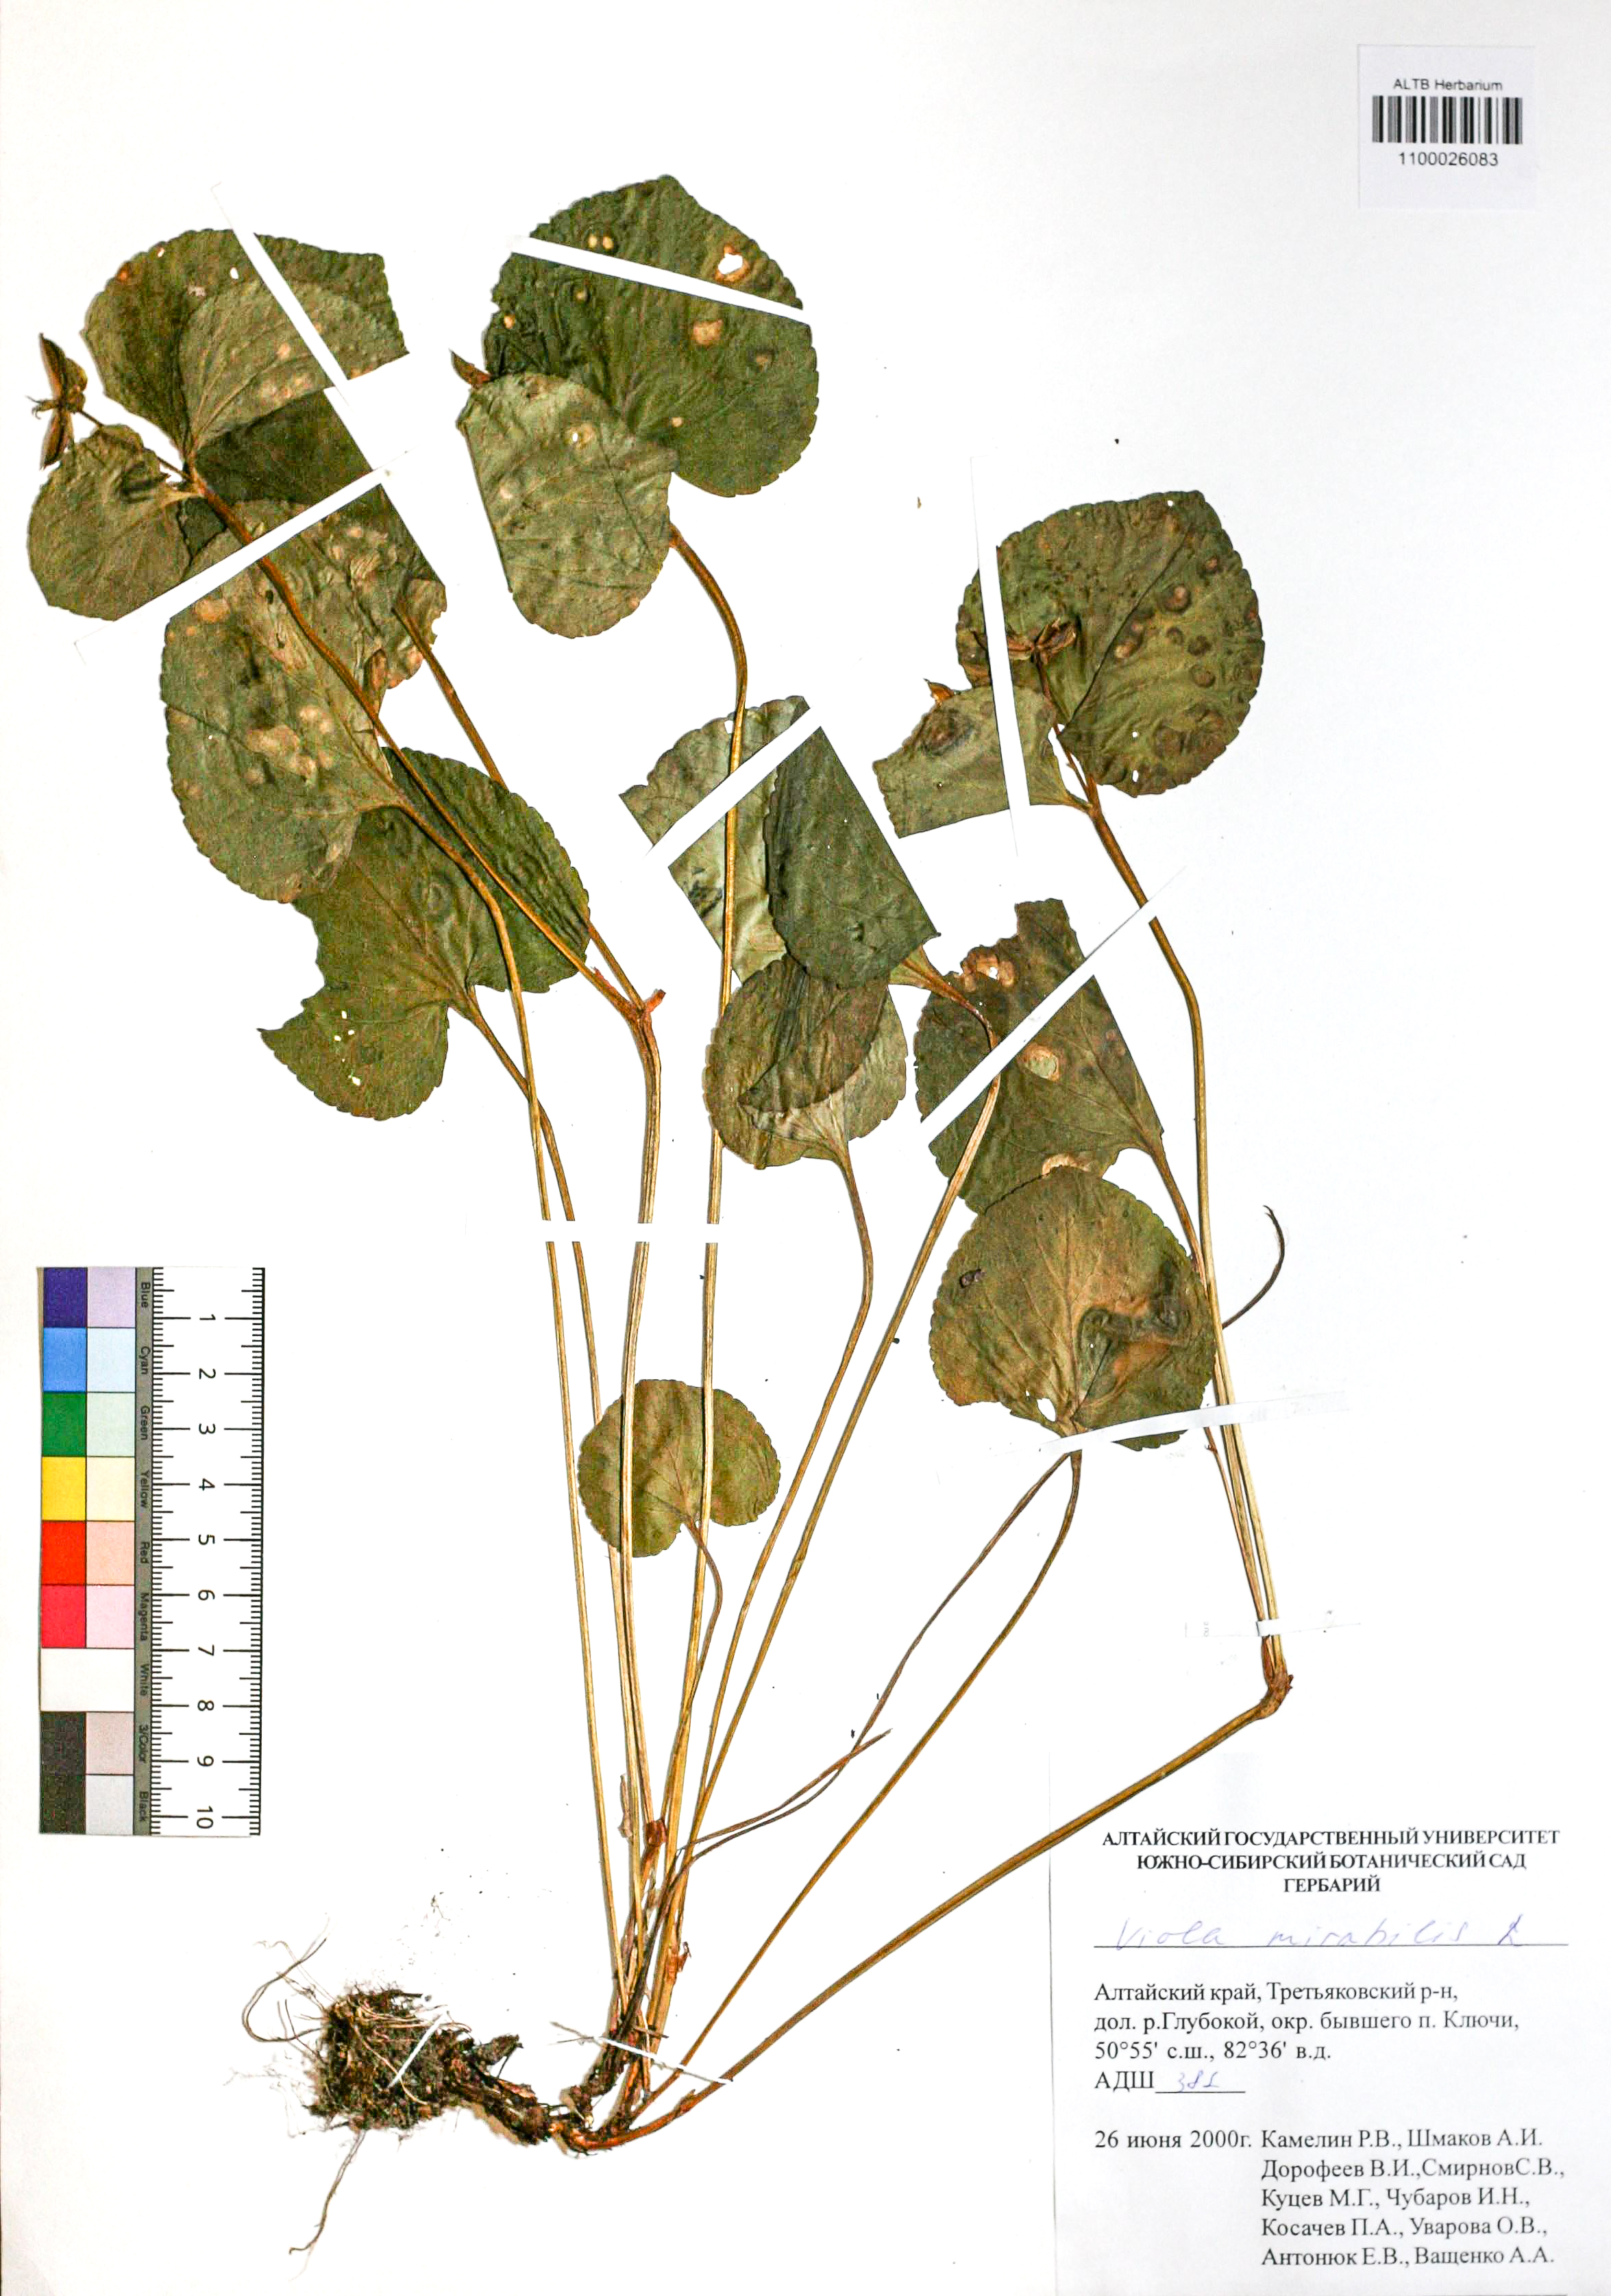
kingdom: Plantae
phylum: Tracheophyta
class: Magnoliopsida
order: Malpighiales
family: Violaceae
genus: Viola
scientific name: Viola mirabilis
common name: Wonder violet
